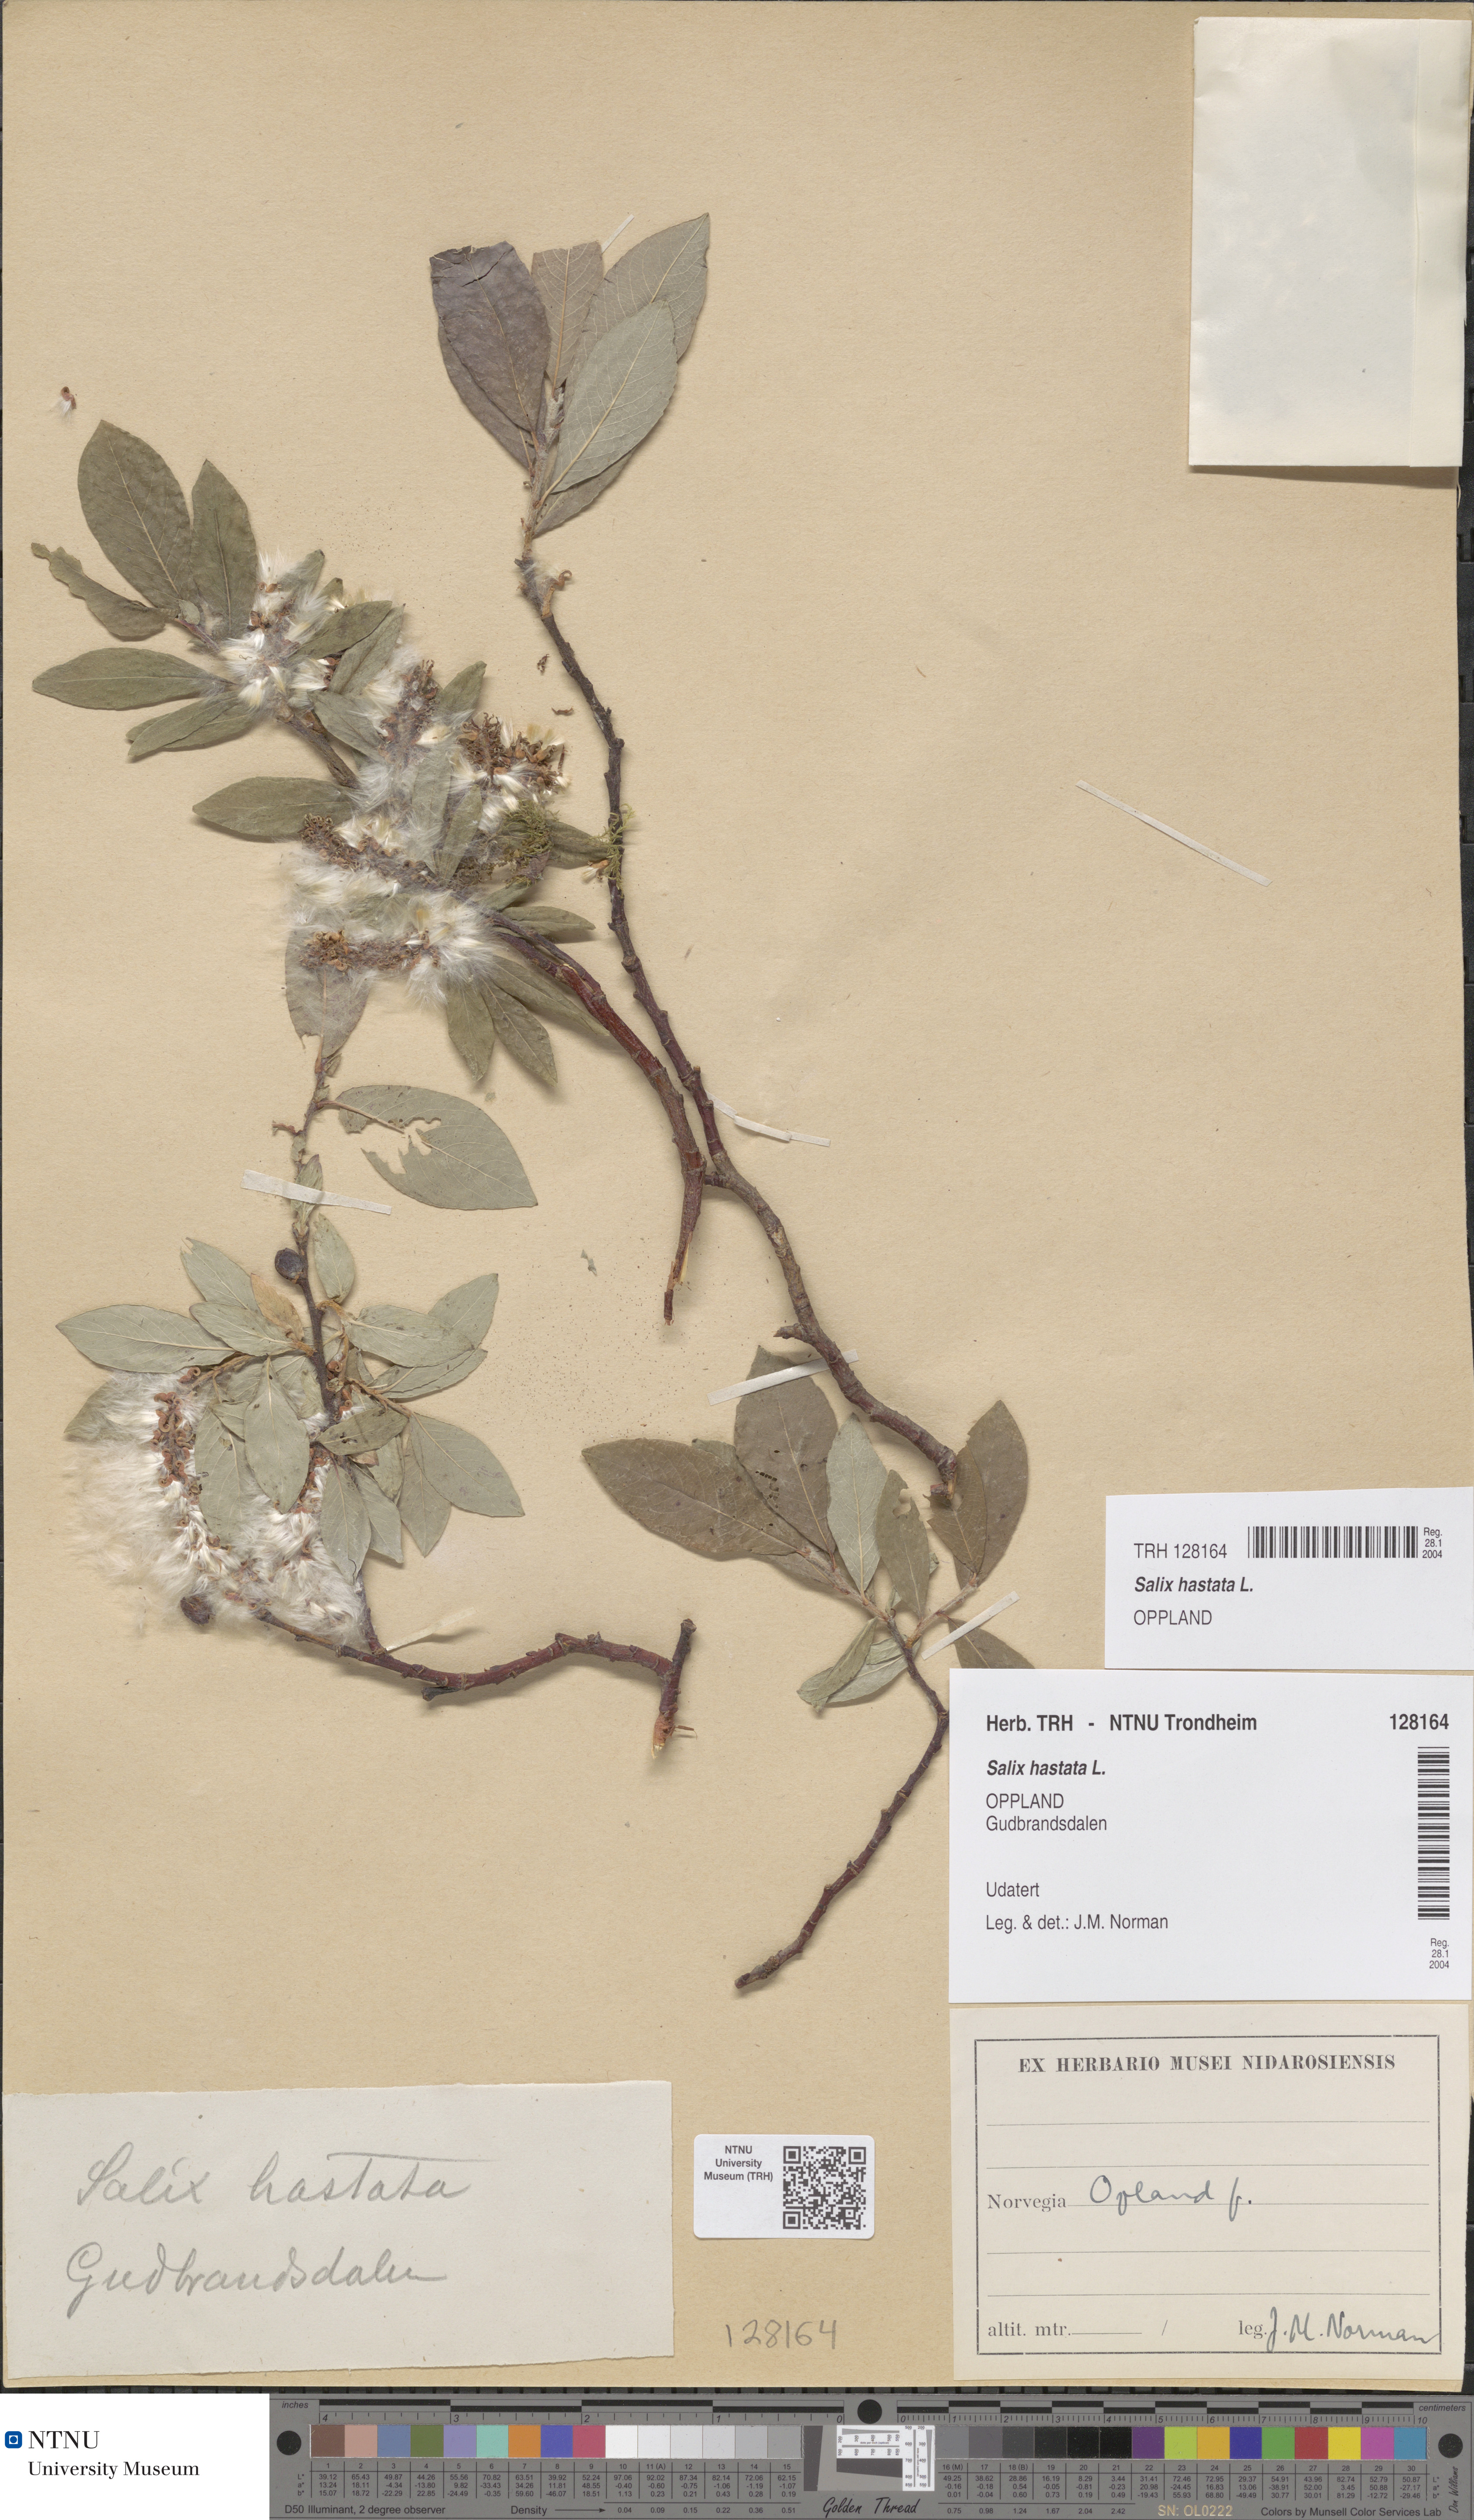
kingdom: Plantae
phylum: Tracheophyta
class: Magnoliopsida
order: Malpighiales
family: Salicaceae
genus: Salix
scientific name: Salix hastata
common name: Halberd willow
